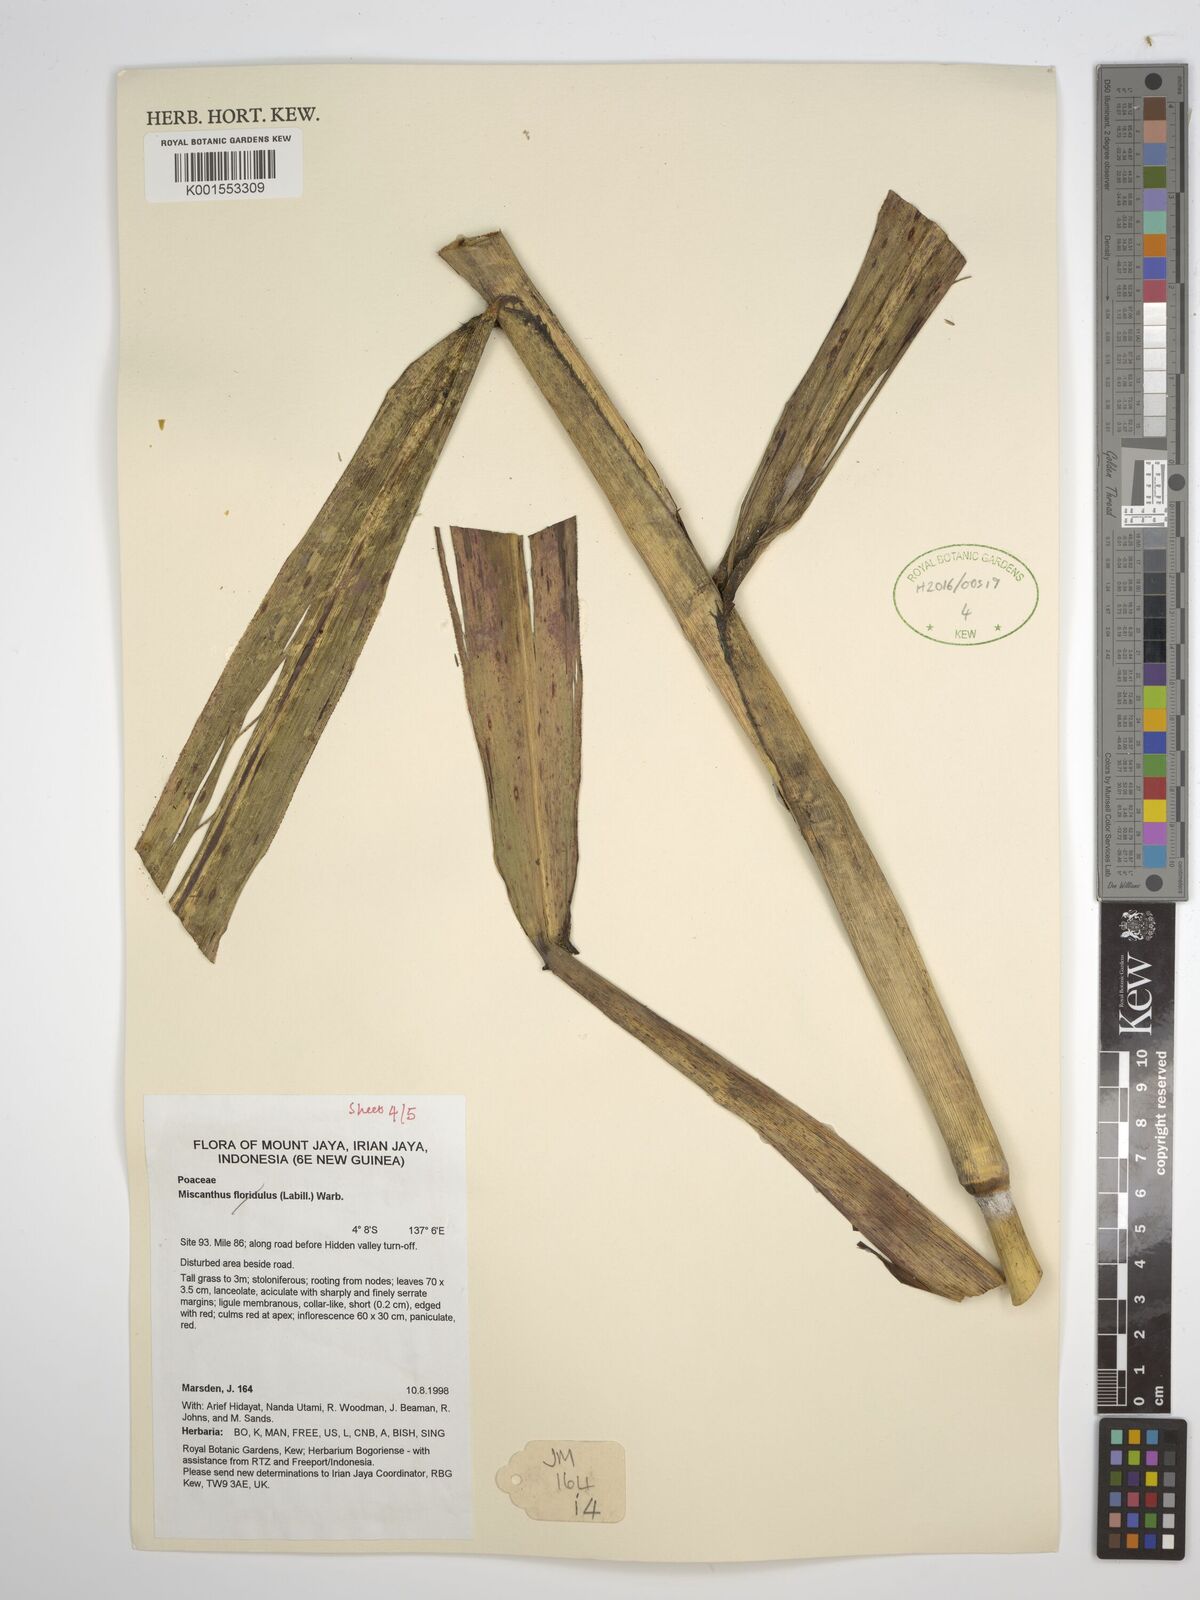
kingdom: Plantae
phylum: Tracheophyta
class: Liliopsida
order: Poales
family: Poaceae
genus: Saccharum
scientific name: Saccharum
